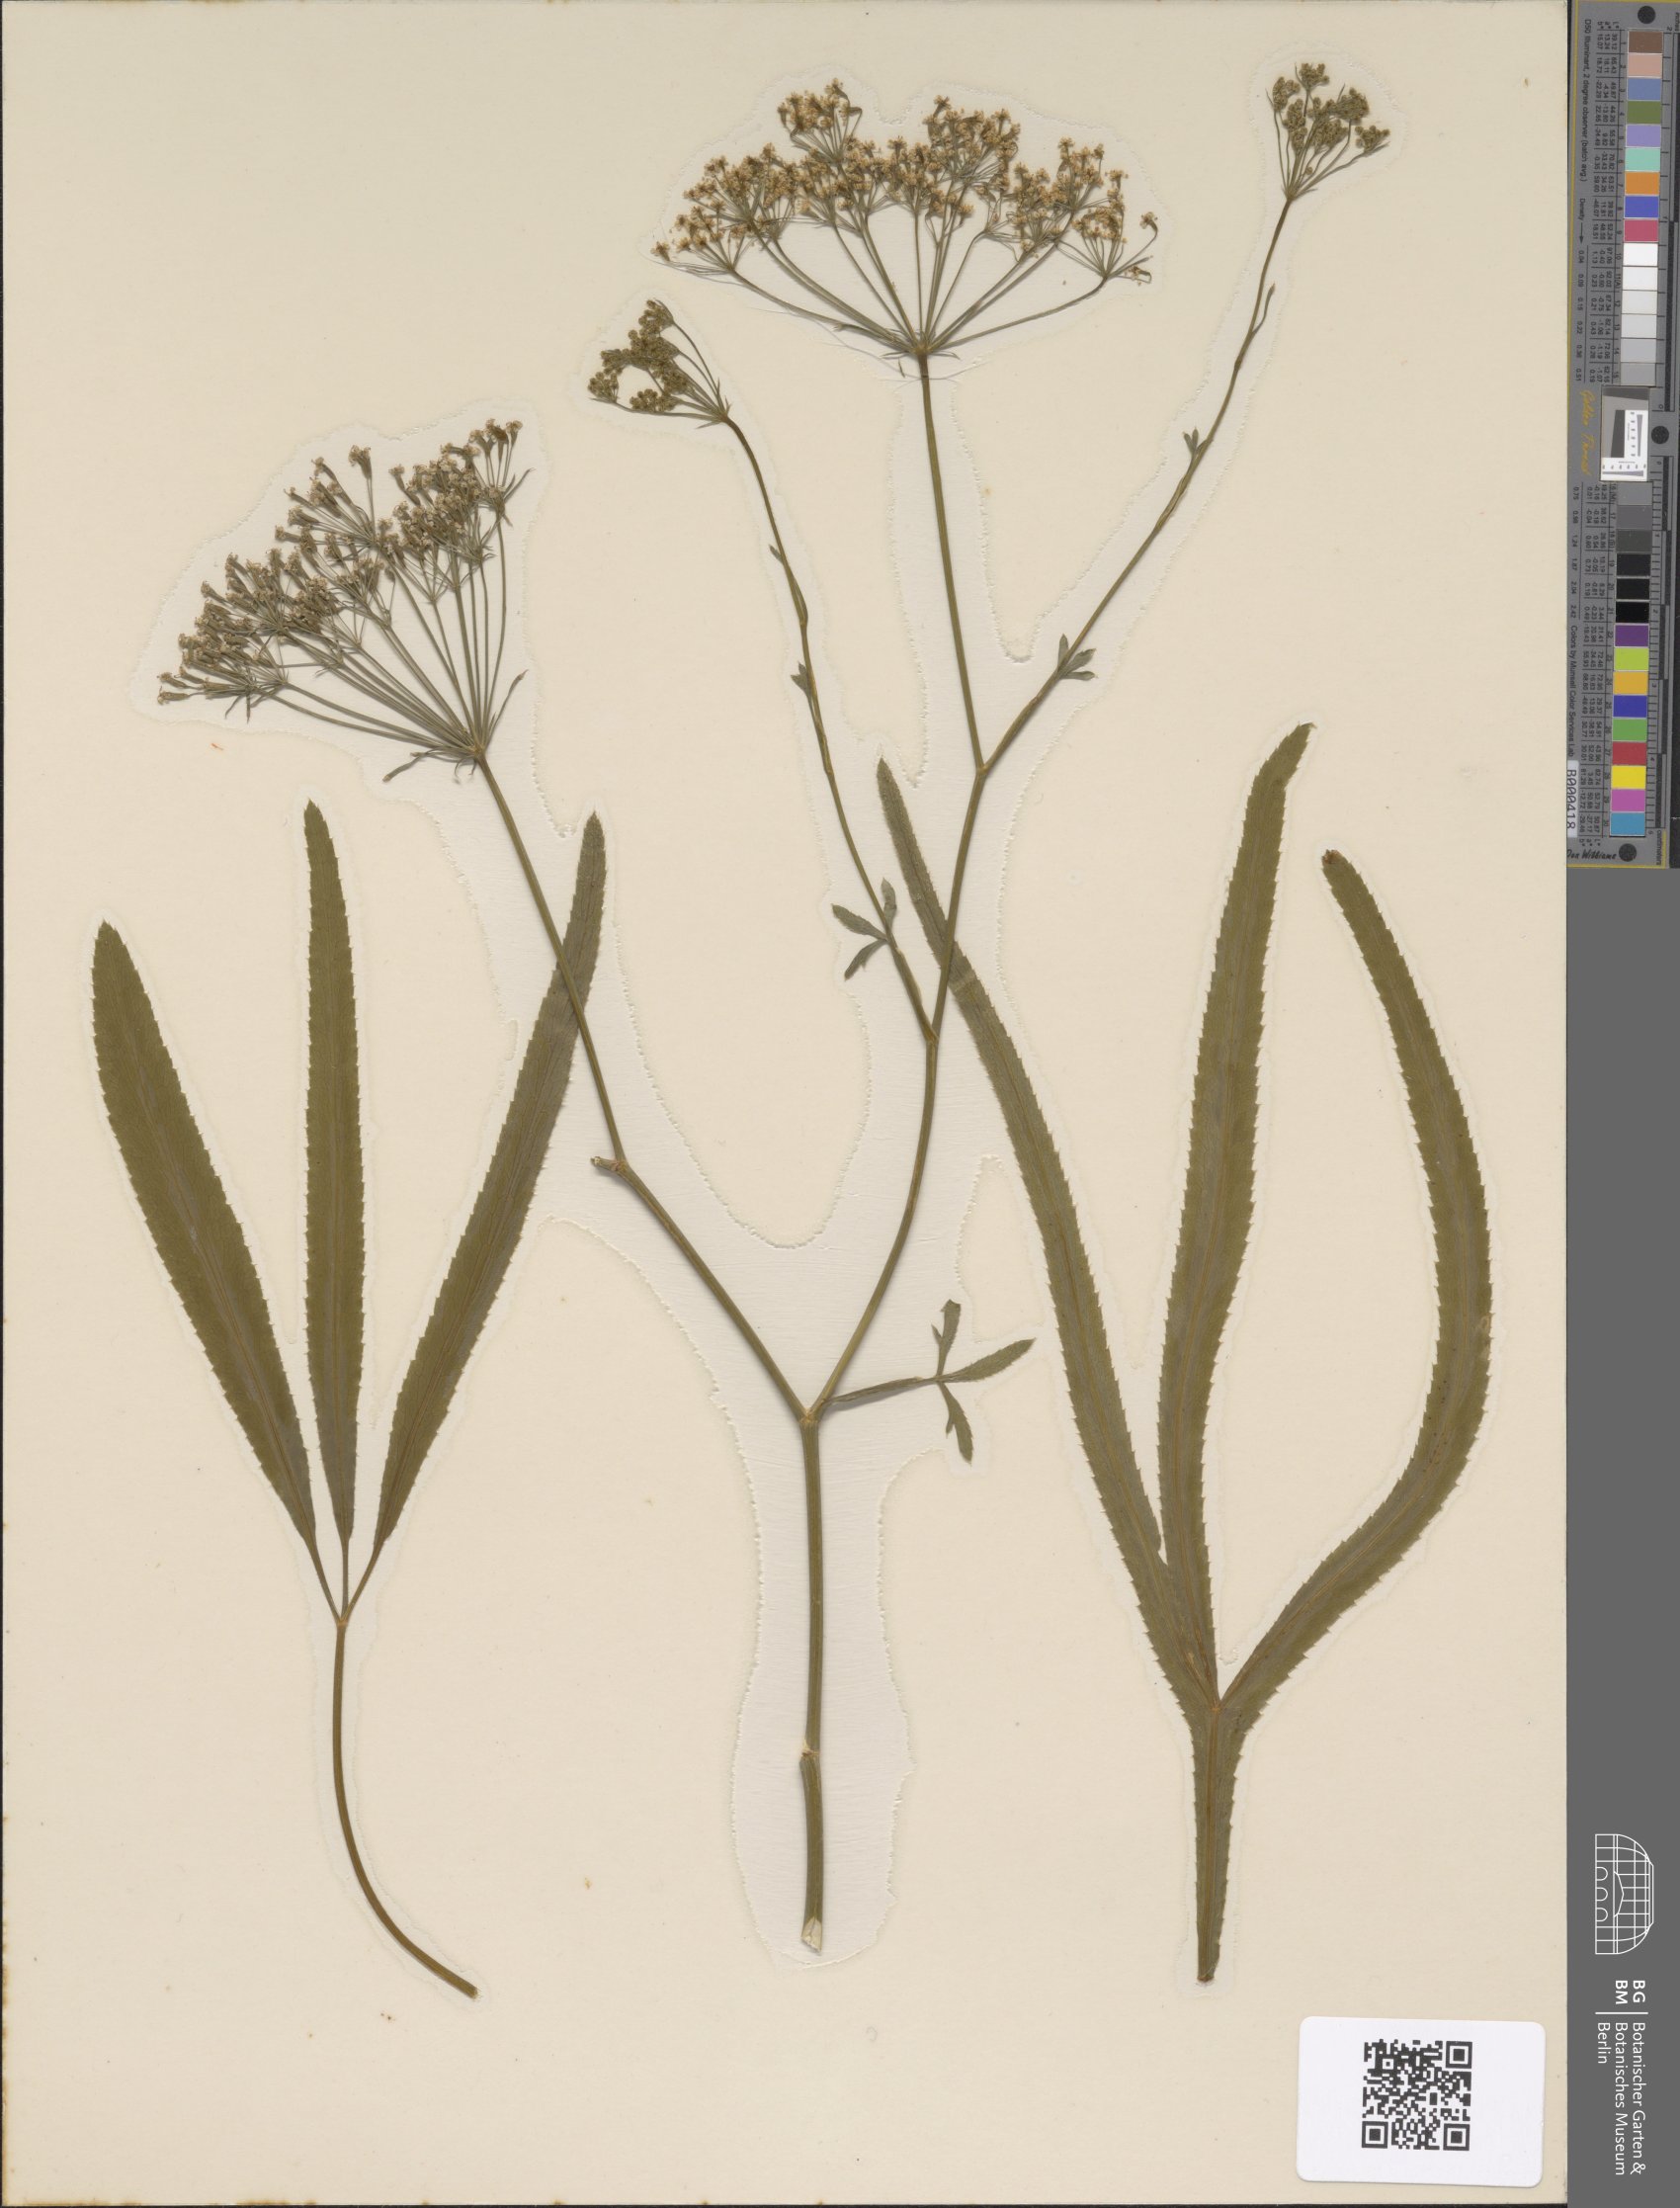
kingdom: Plantae
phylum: Tracheophyta
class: Magnoliopsida
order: Apiales
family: Apiaceae
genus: Falcaria
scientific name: Falcaria vulgaris
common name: Longleaf
